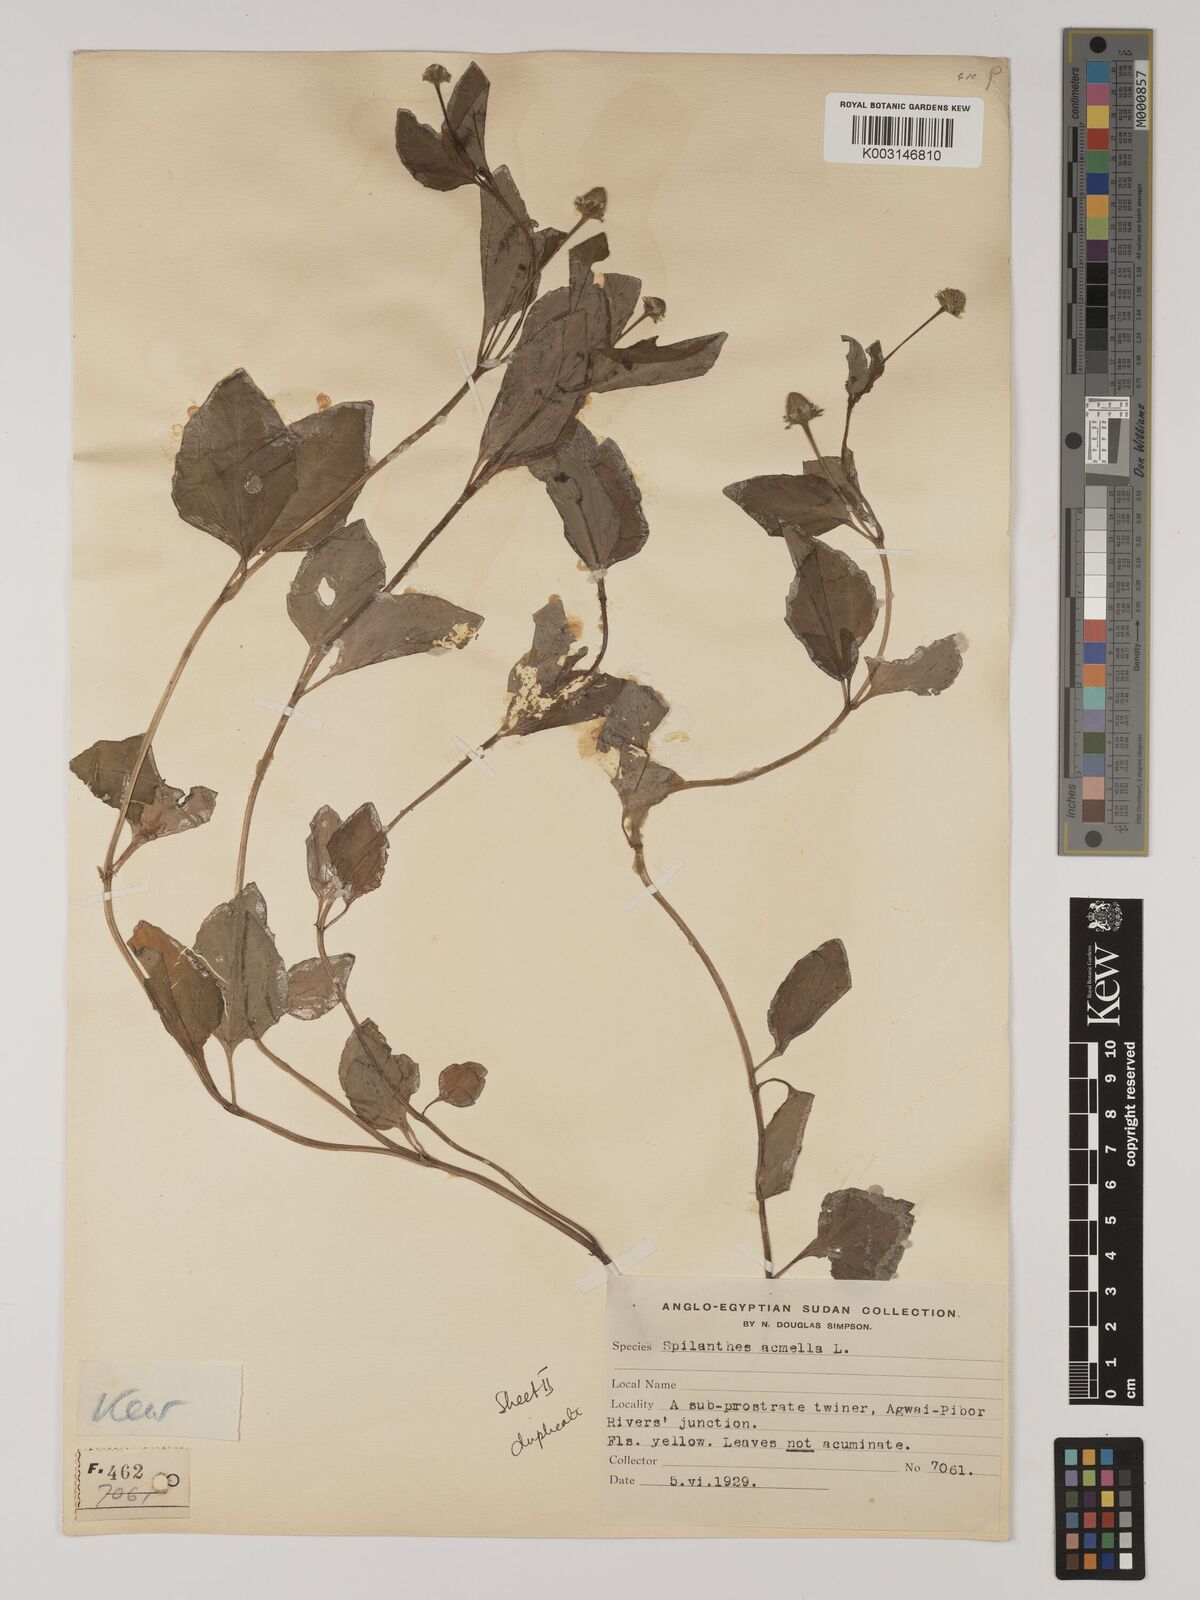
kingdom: Plantae
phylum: Tracheophyta
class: Magnoliopsida
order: Asterales
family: Asteraceae
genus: Blainvillea
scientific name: Blainvillea acmella
